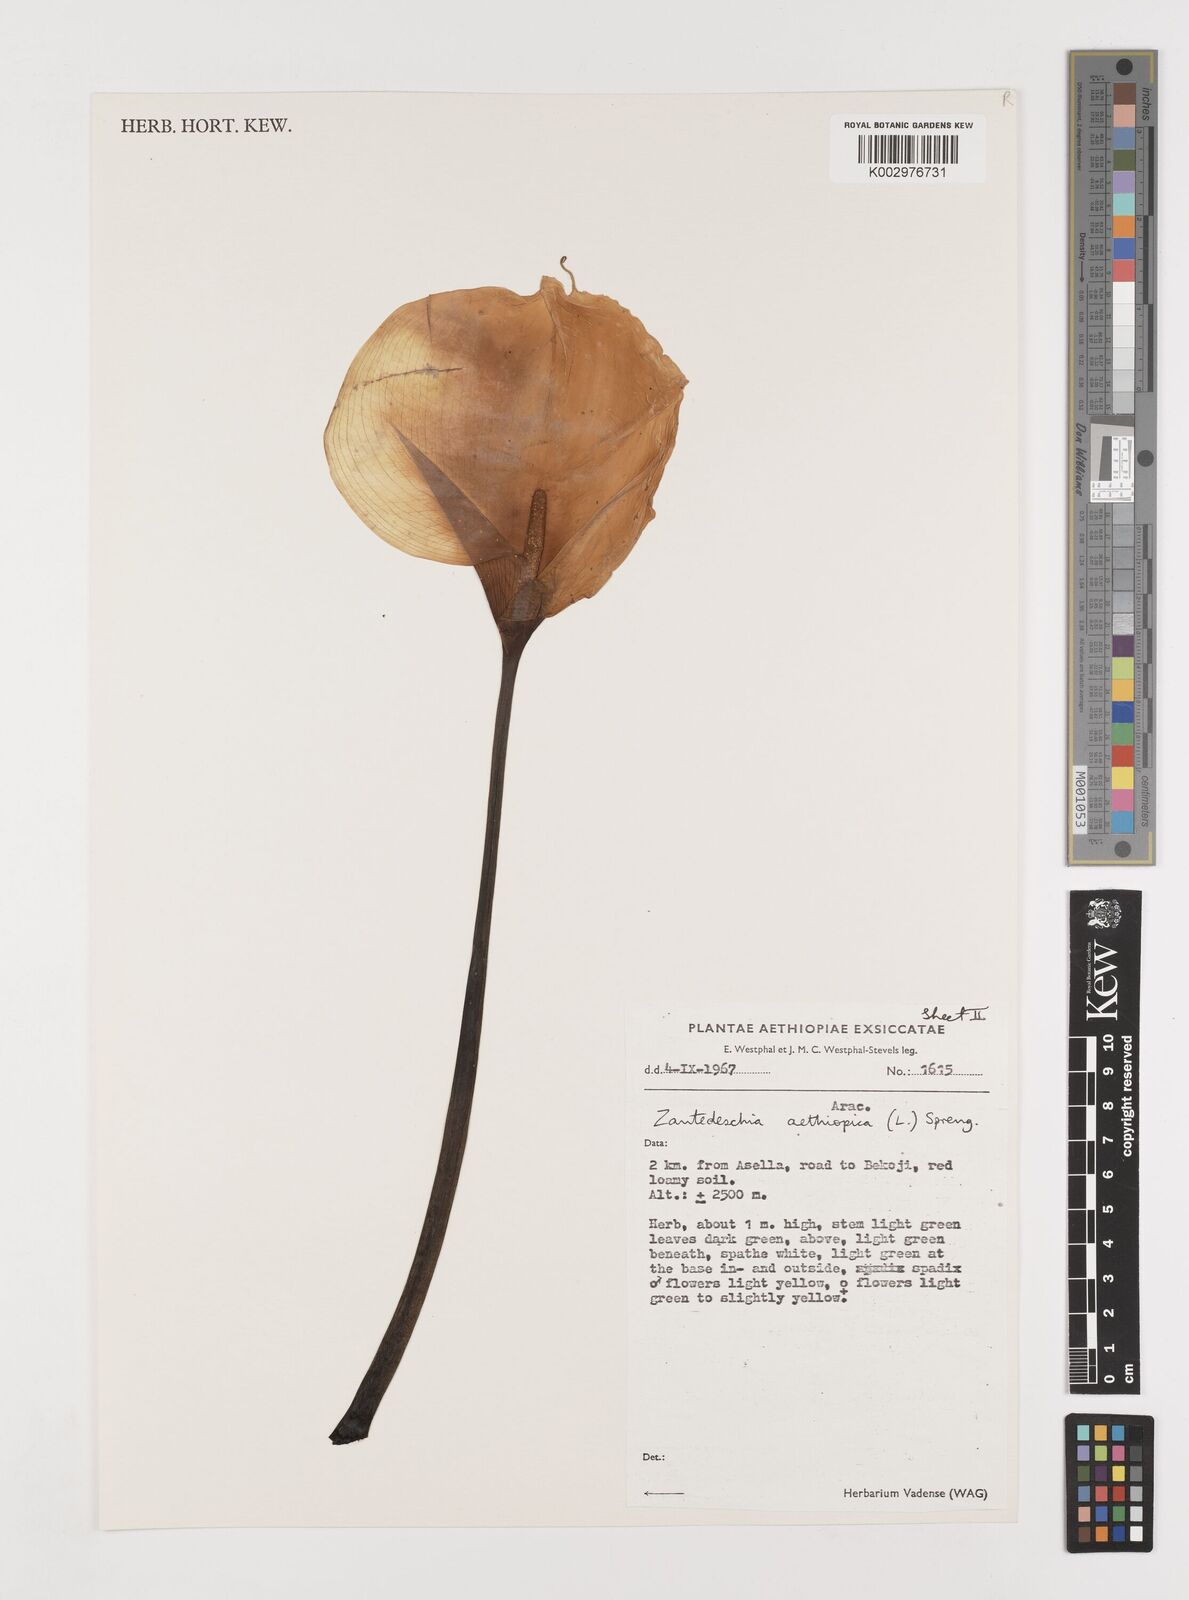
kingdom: Plantae
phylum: Tracheophyta
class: Liliopsida
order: Alismatales
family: Araceae
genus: Zantedeschia
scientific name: Zantedeschia aethiopica
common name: Altar-lily
